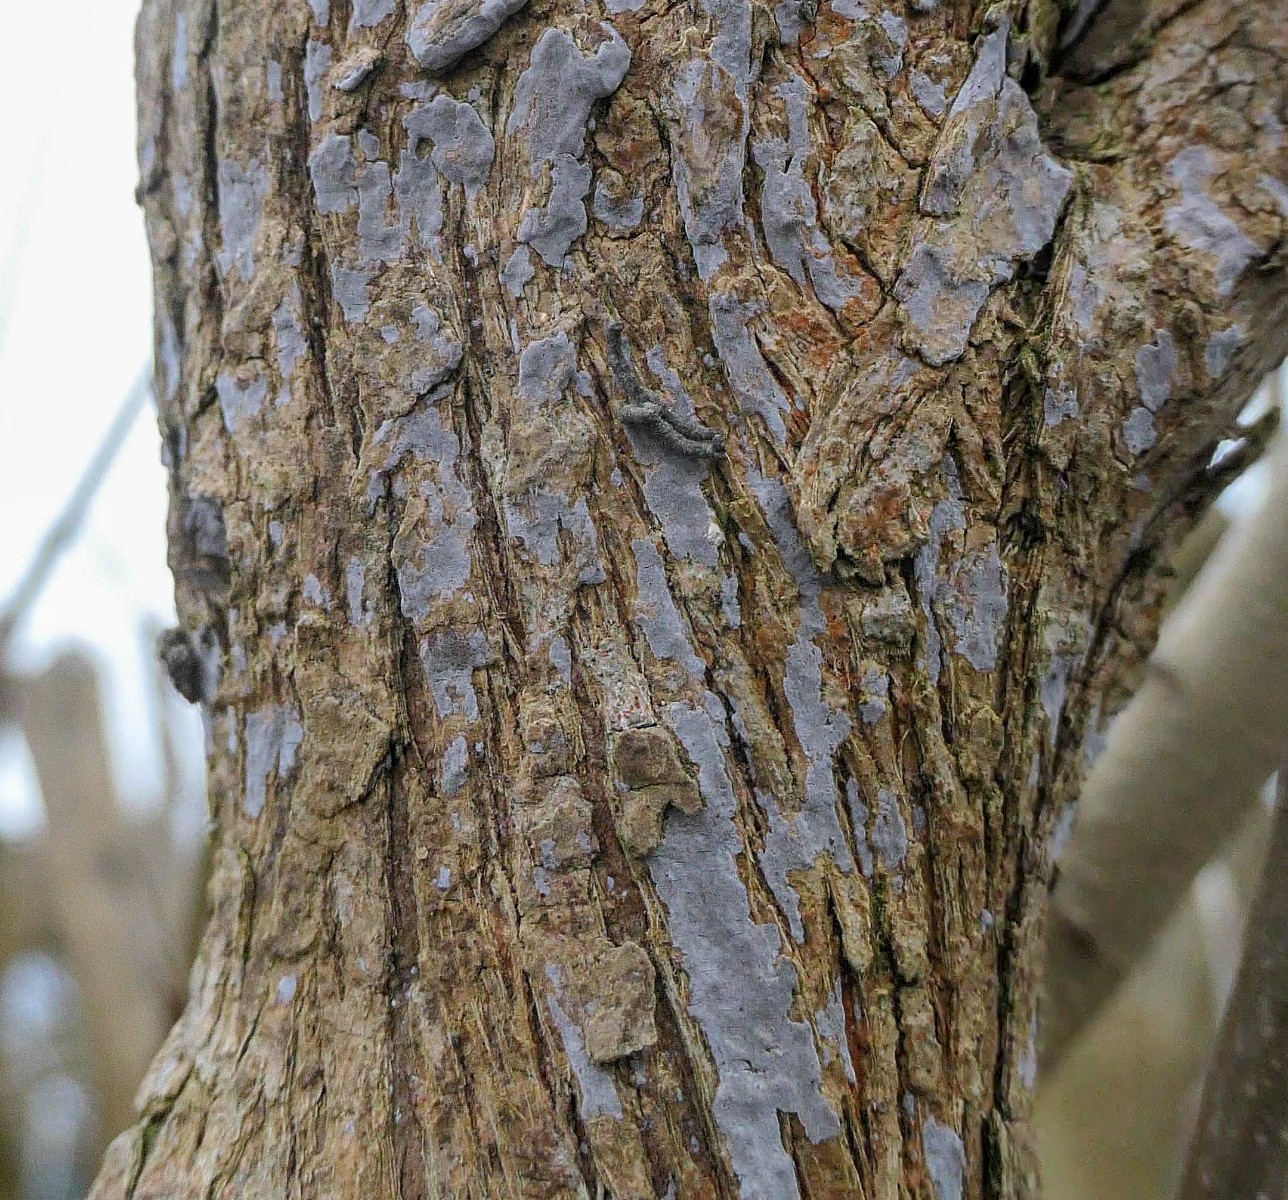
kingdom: Fungi
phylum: Basidiomycota
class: Agaricomycetes
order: Russulales
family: Peniophoraceae
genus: Peniophora
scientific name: Peniophora lycii
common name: grynet voksskind
